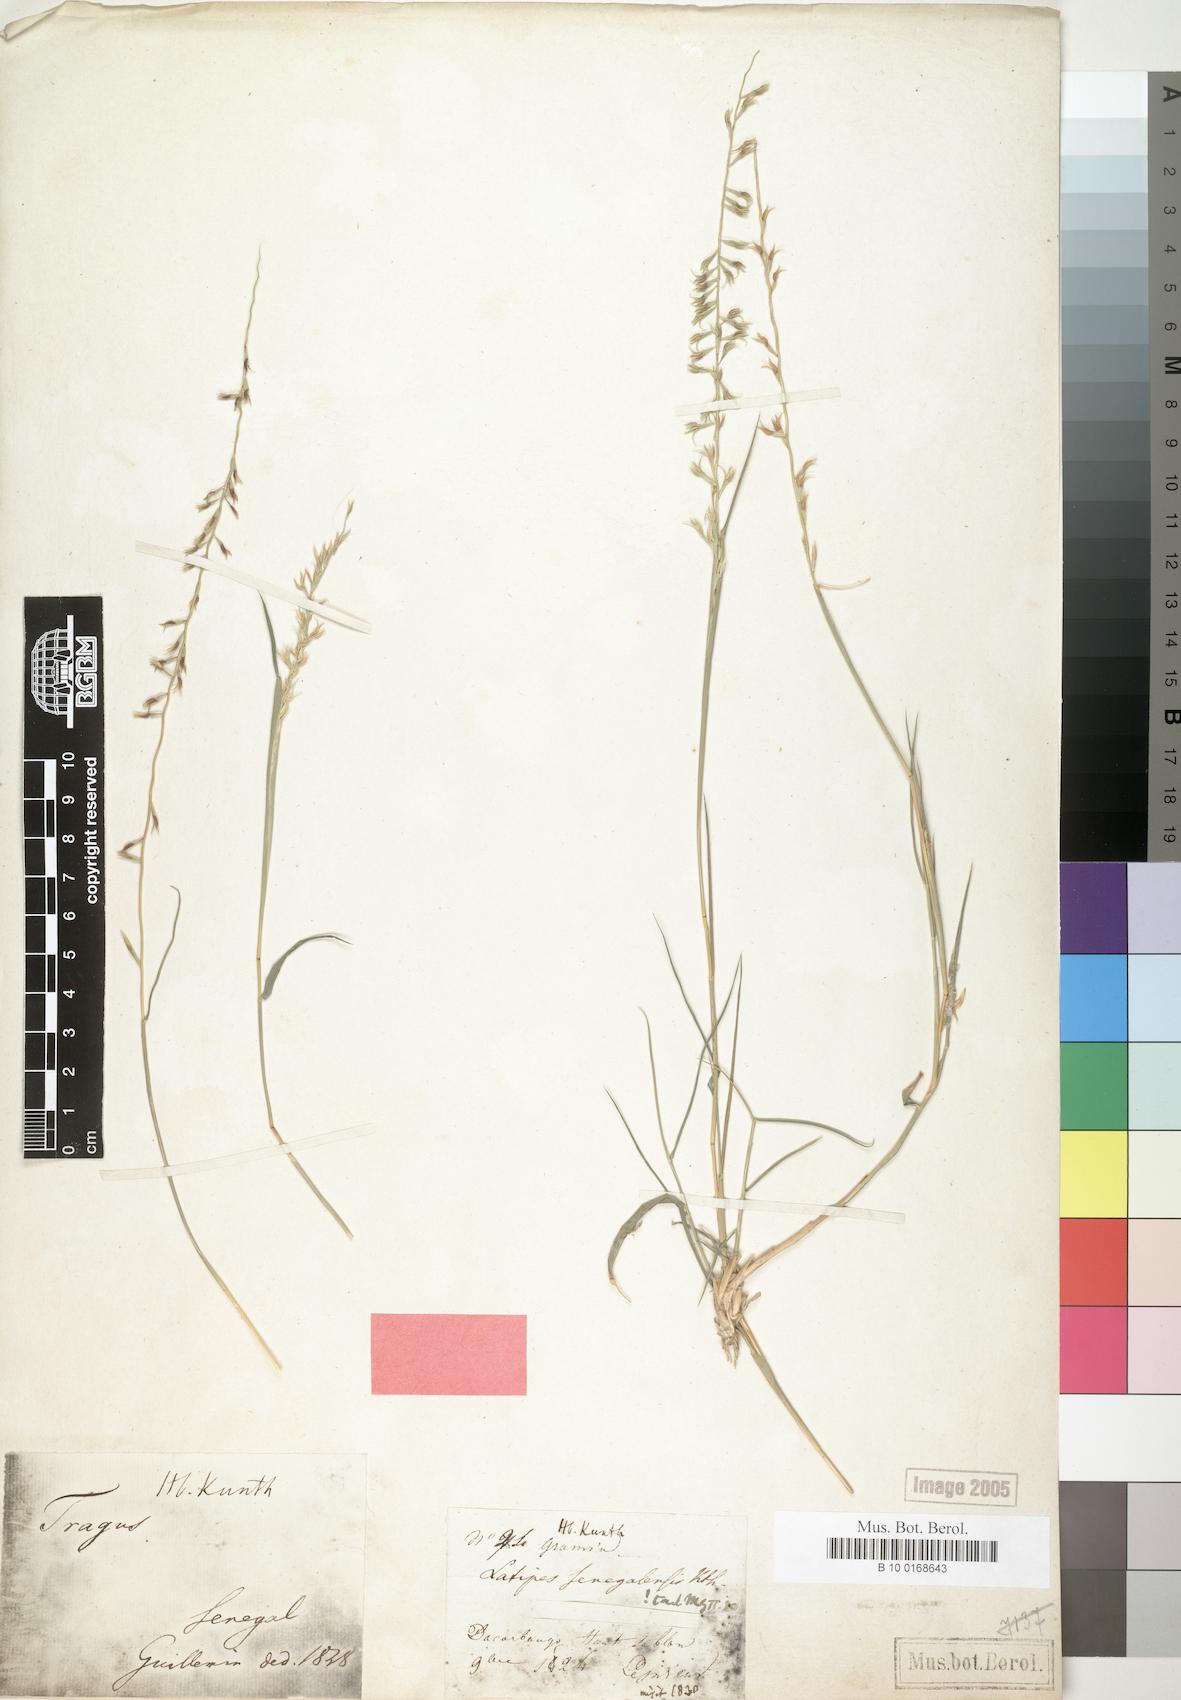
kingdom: Plantae
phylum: Tracheophyta
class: Liliopsida
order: Poales
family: Poaceae
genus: Leptothrium
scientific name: Leptothrium senegalense
